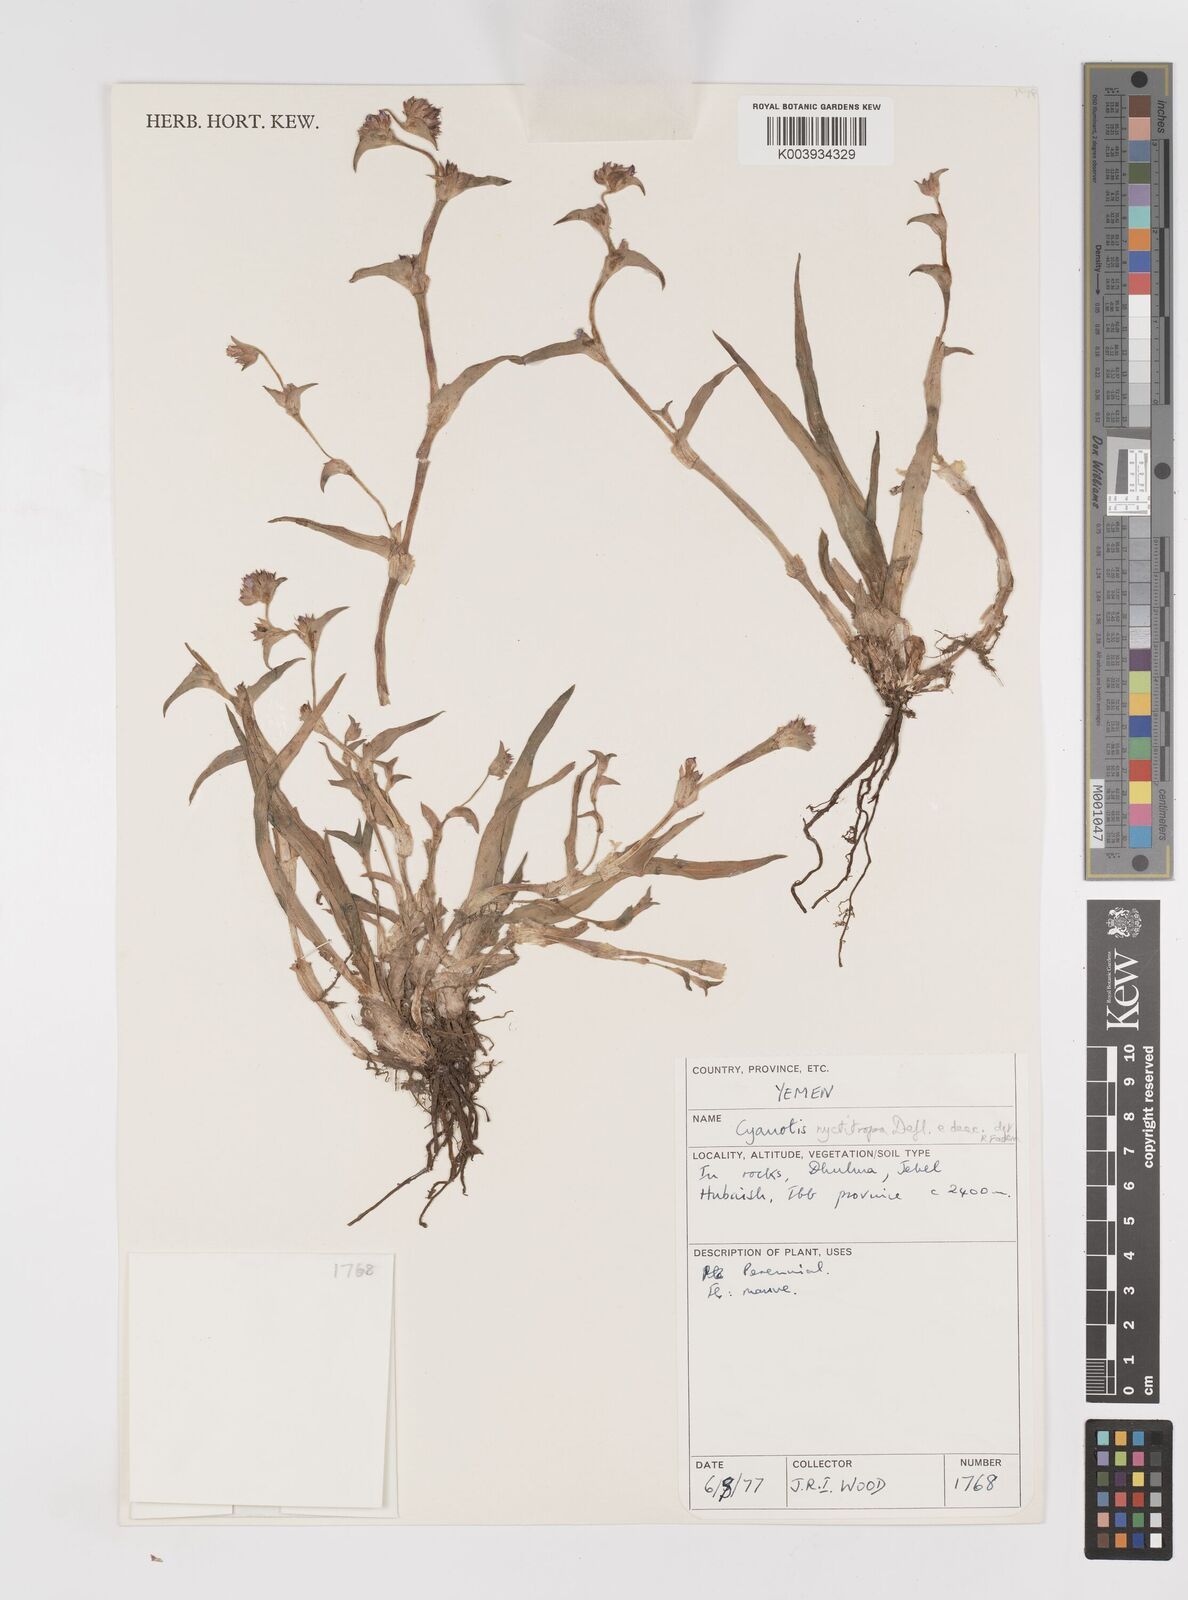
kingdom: Plantae
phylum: Tracheophyta
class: Liliopsida
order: Commelinales
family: Commelinaceae
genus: Cyanotis
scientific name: Cyanotis nyctitropa
